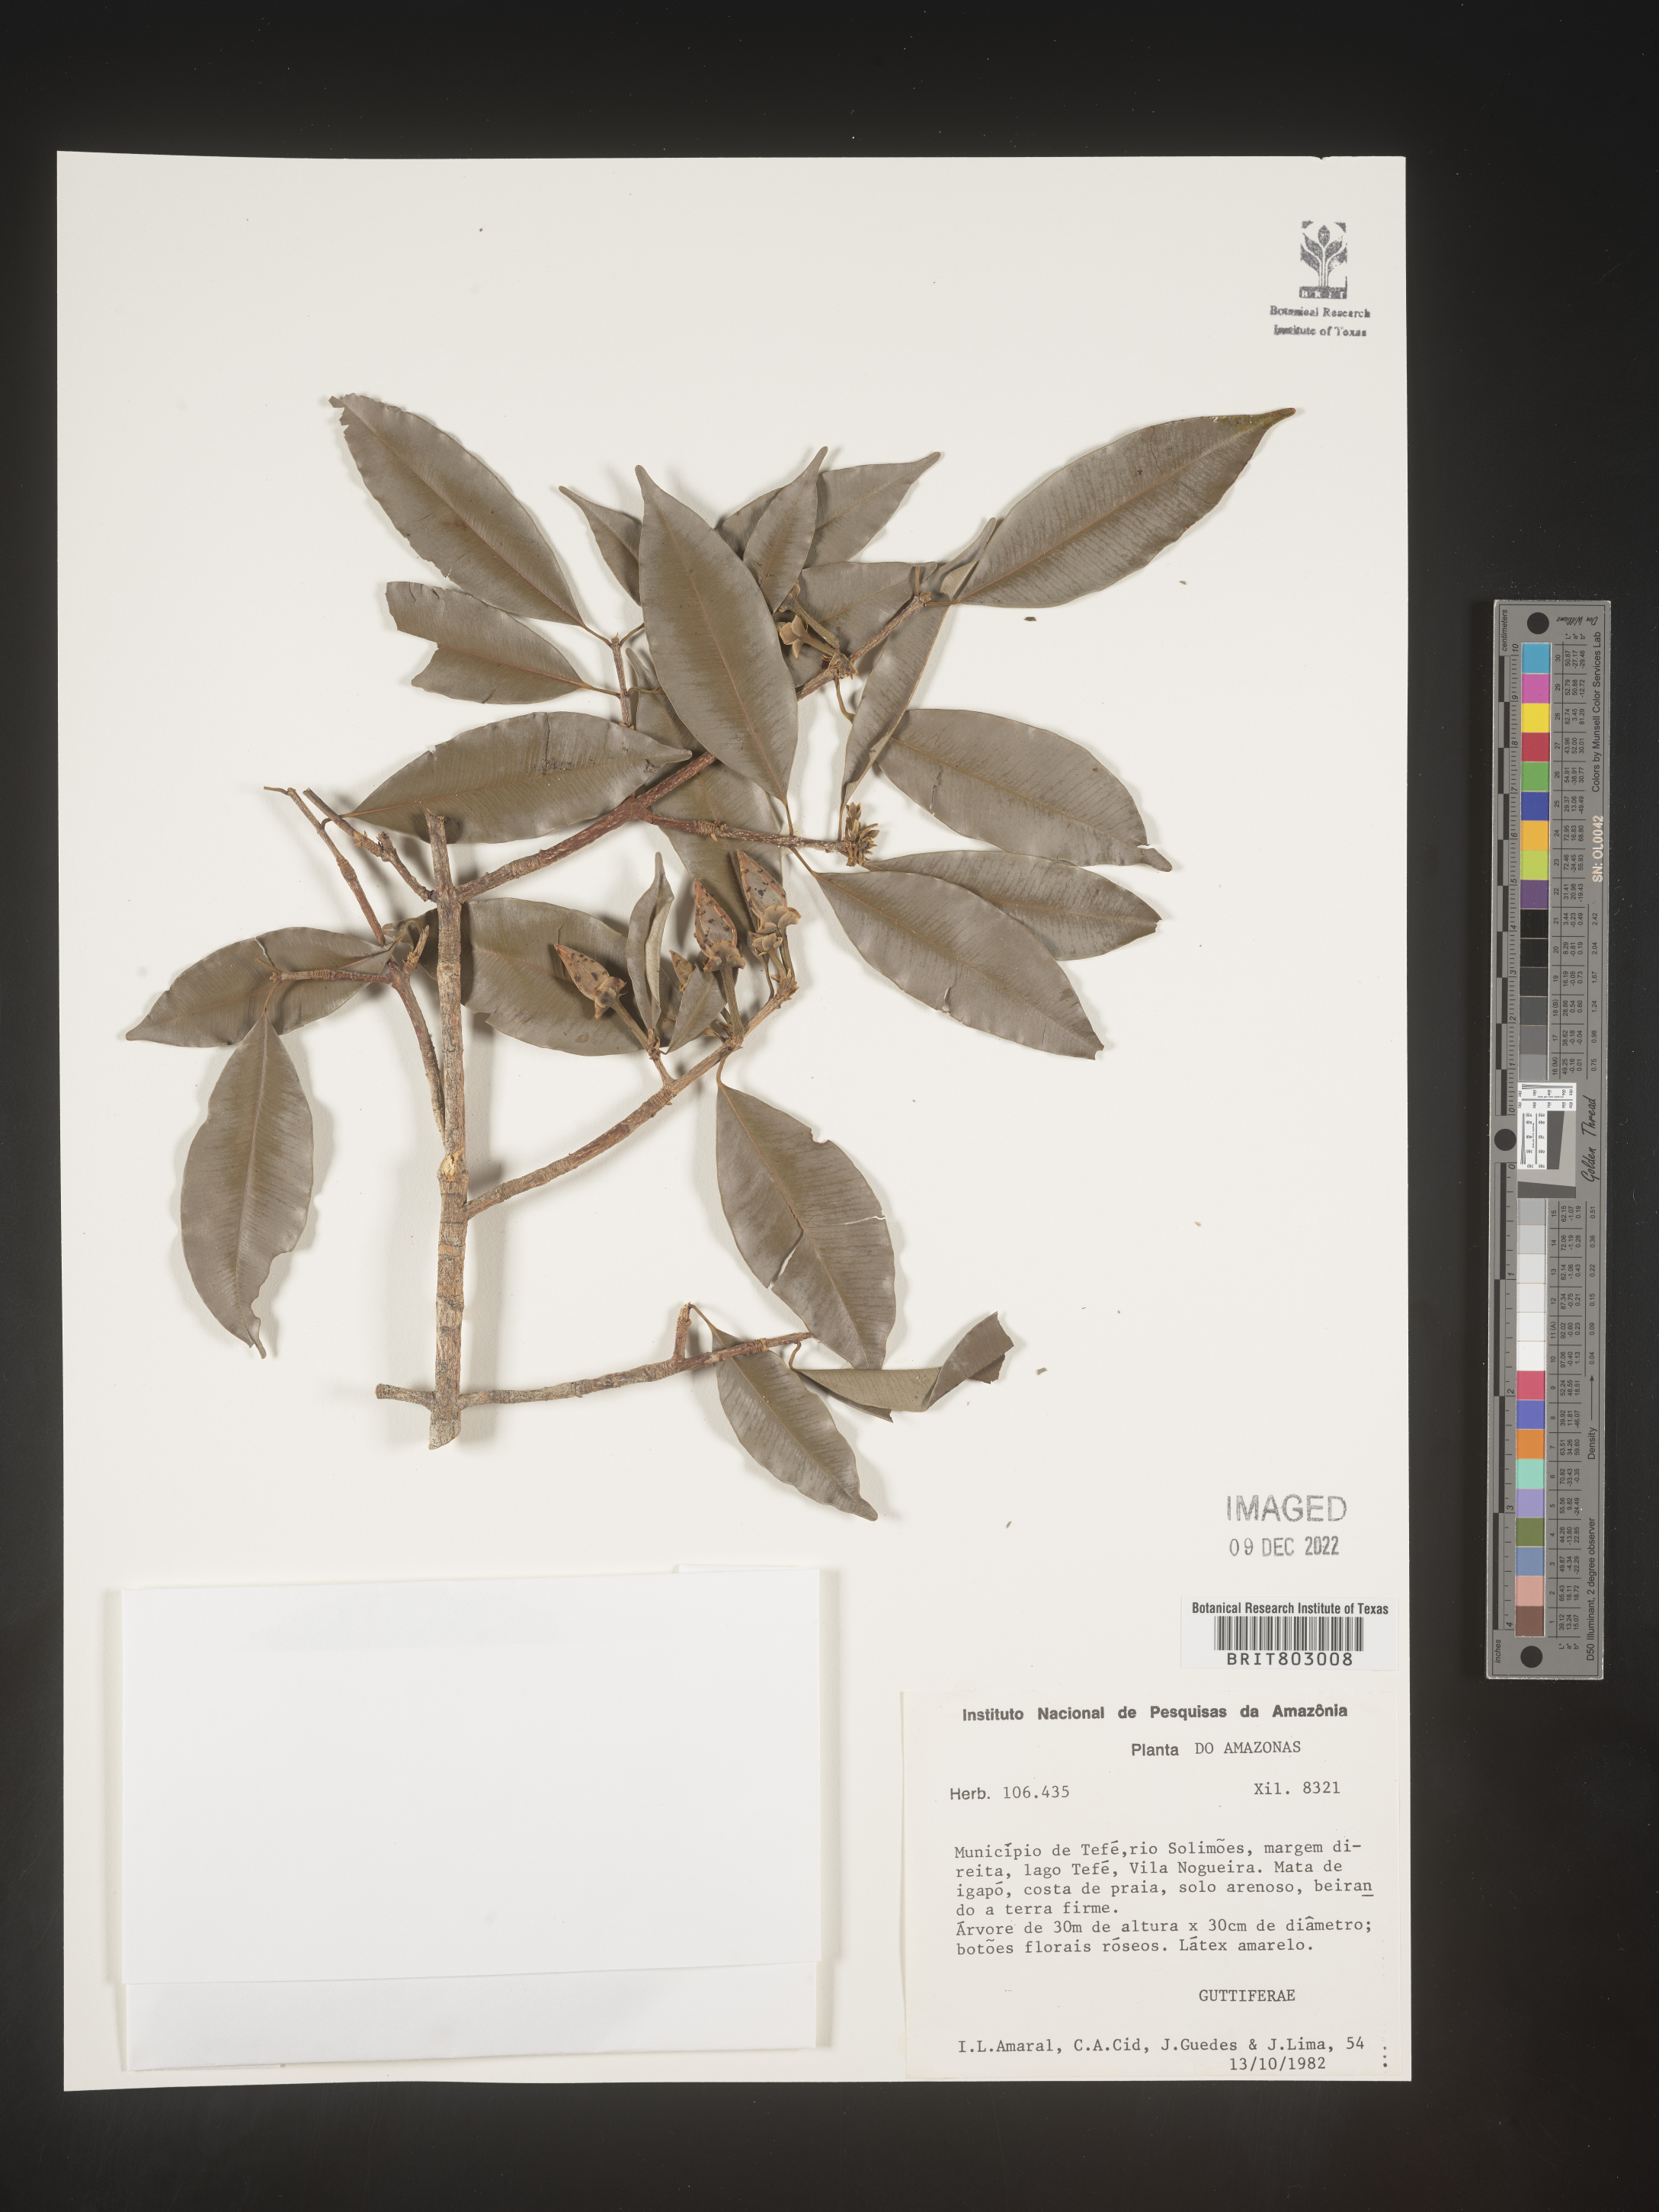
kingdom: Plantae
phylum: Tracheophyta
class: Magnoliopsida
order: Malpighiales
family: Clusiaceae
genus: Moronobea
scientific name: Moronobea
